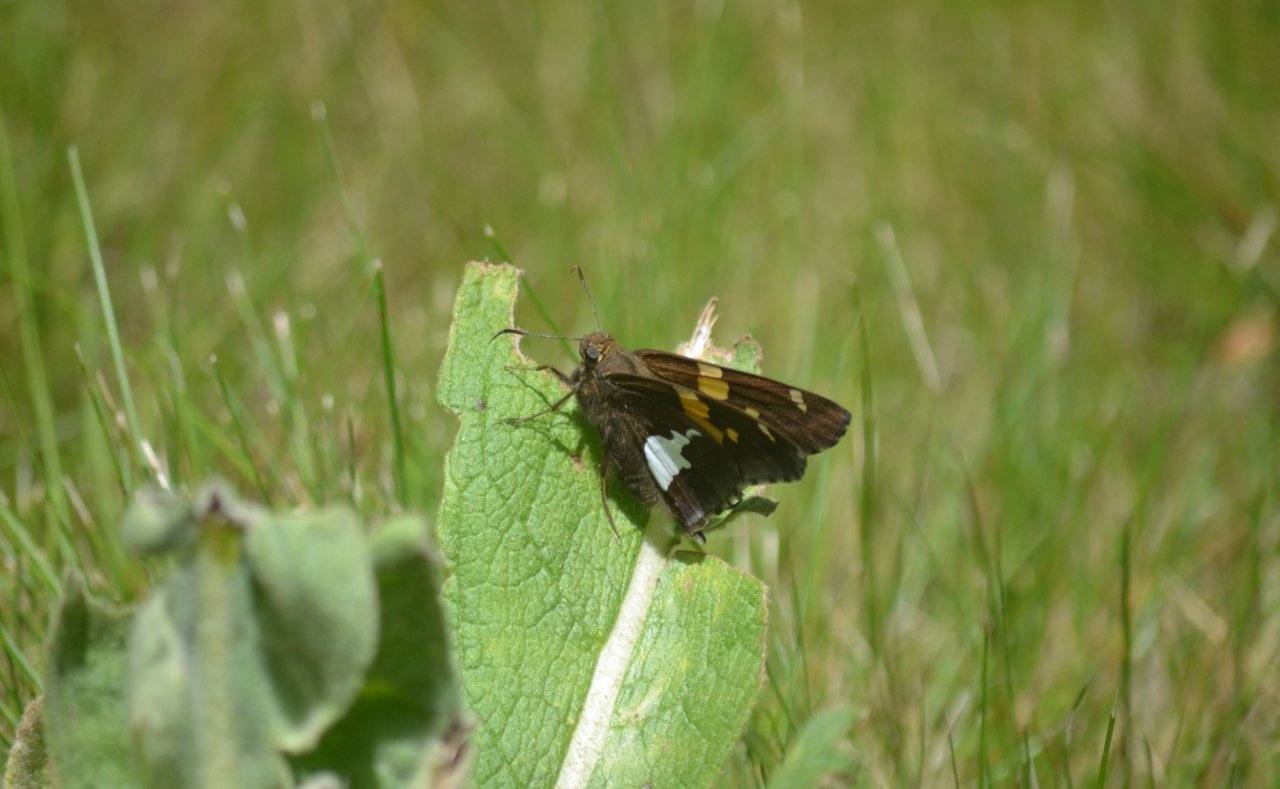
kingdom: Animalia
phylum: Arthropoda
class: Insecta
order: Lepidoptera
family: Hesperiidae
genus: Epargyreus
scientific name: Epargyreus clarus
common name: Silver-spotted Skipper
